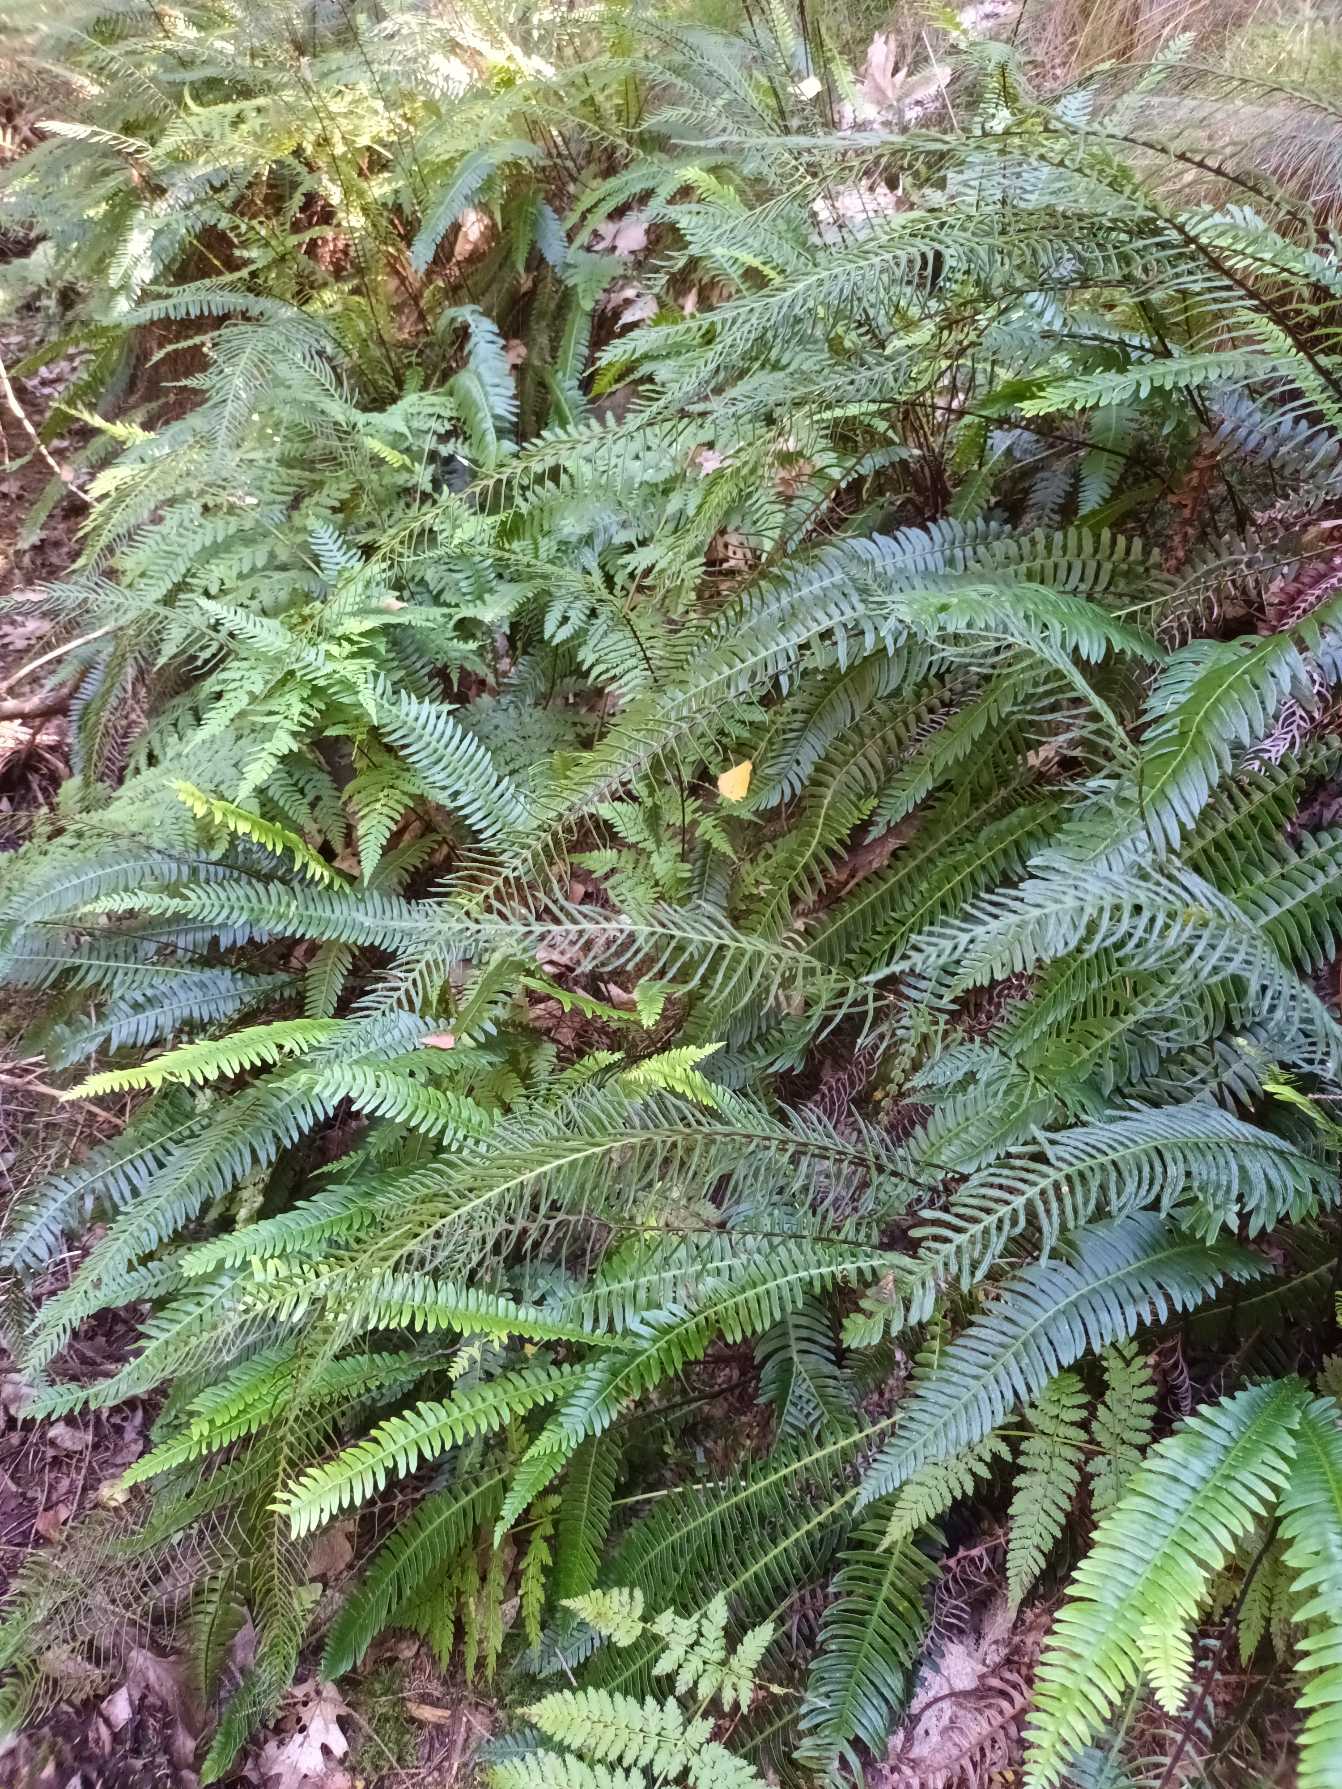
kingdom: Plantae
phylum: Tracheophyta
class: Polypodiopsida
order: Polypodiales
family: Blechnaceae
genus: Struthiopteris
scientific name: Struthiopteris spicant
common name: Kambregne
